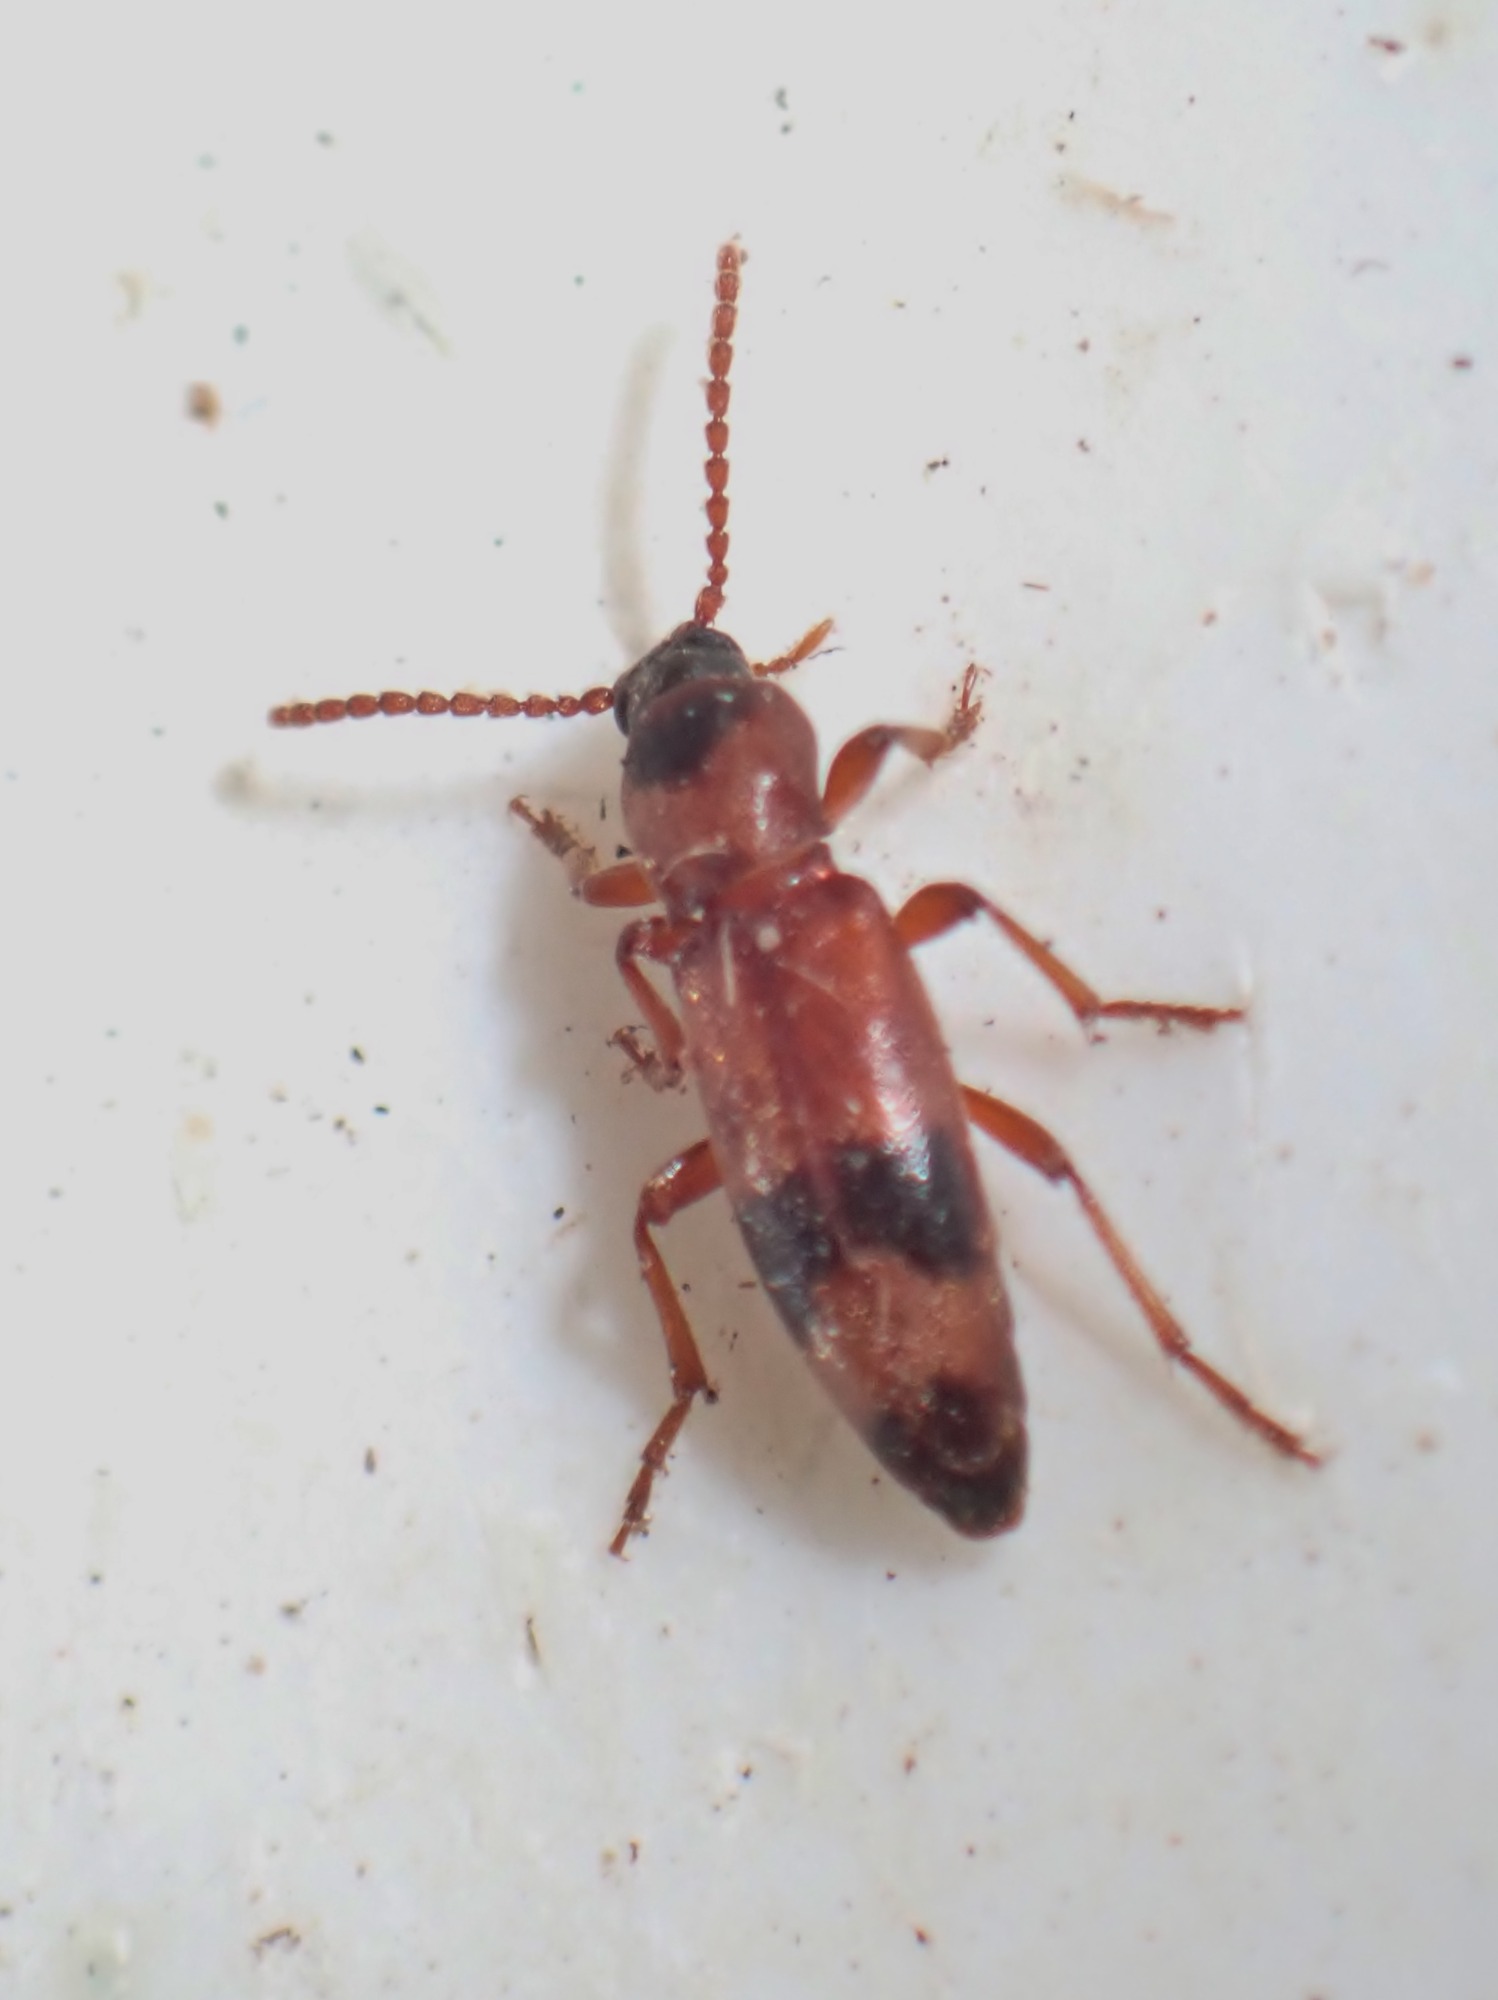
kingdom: Animalia
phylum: Arthropoda
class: Insecta
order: Coleoptera
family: Anthicidae
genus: Notoxus
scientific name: Notoxus bifasciatus
